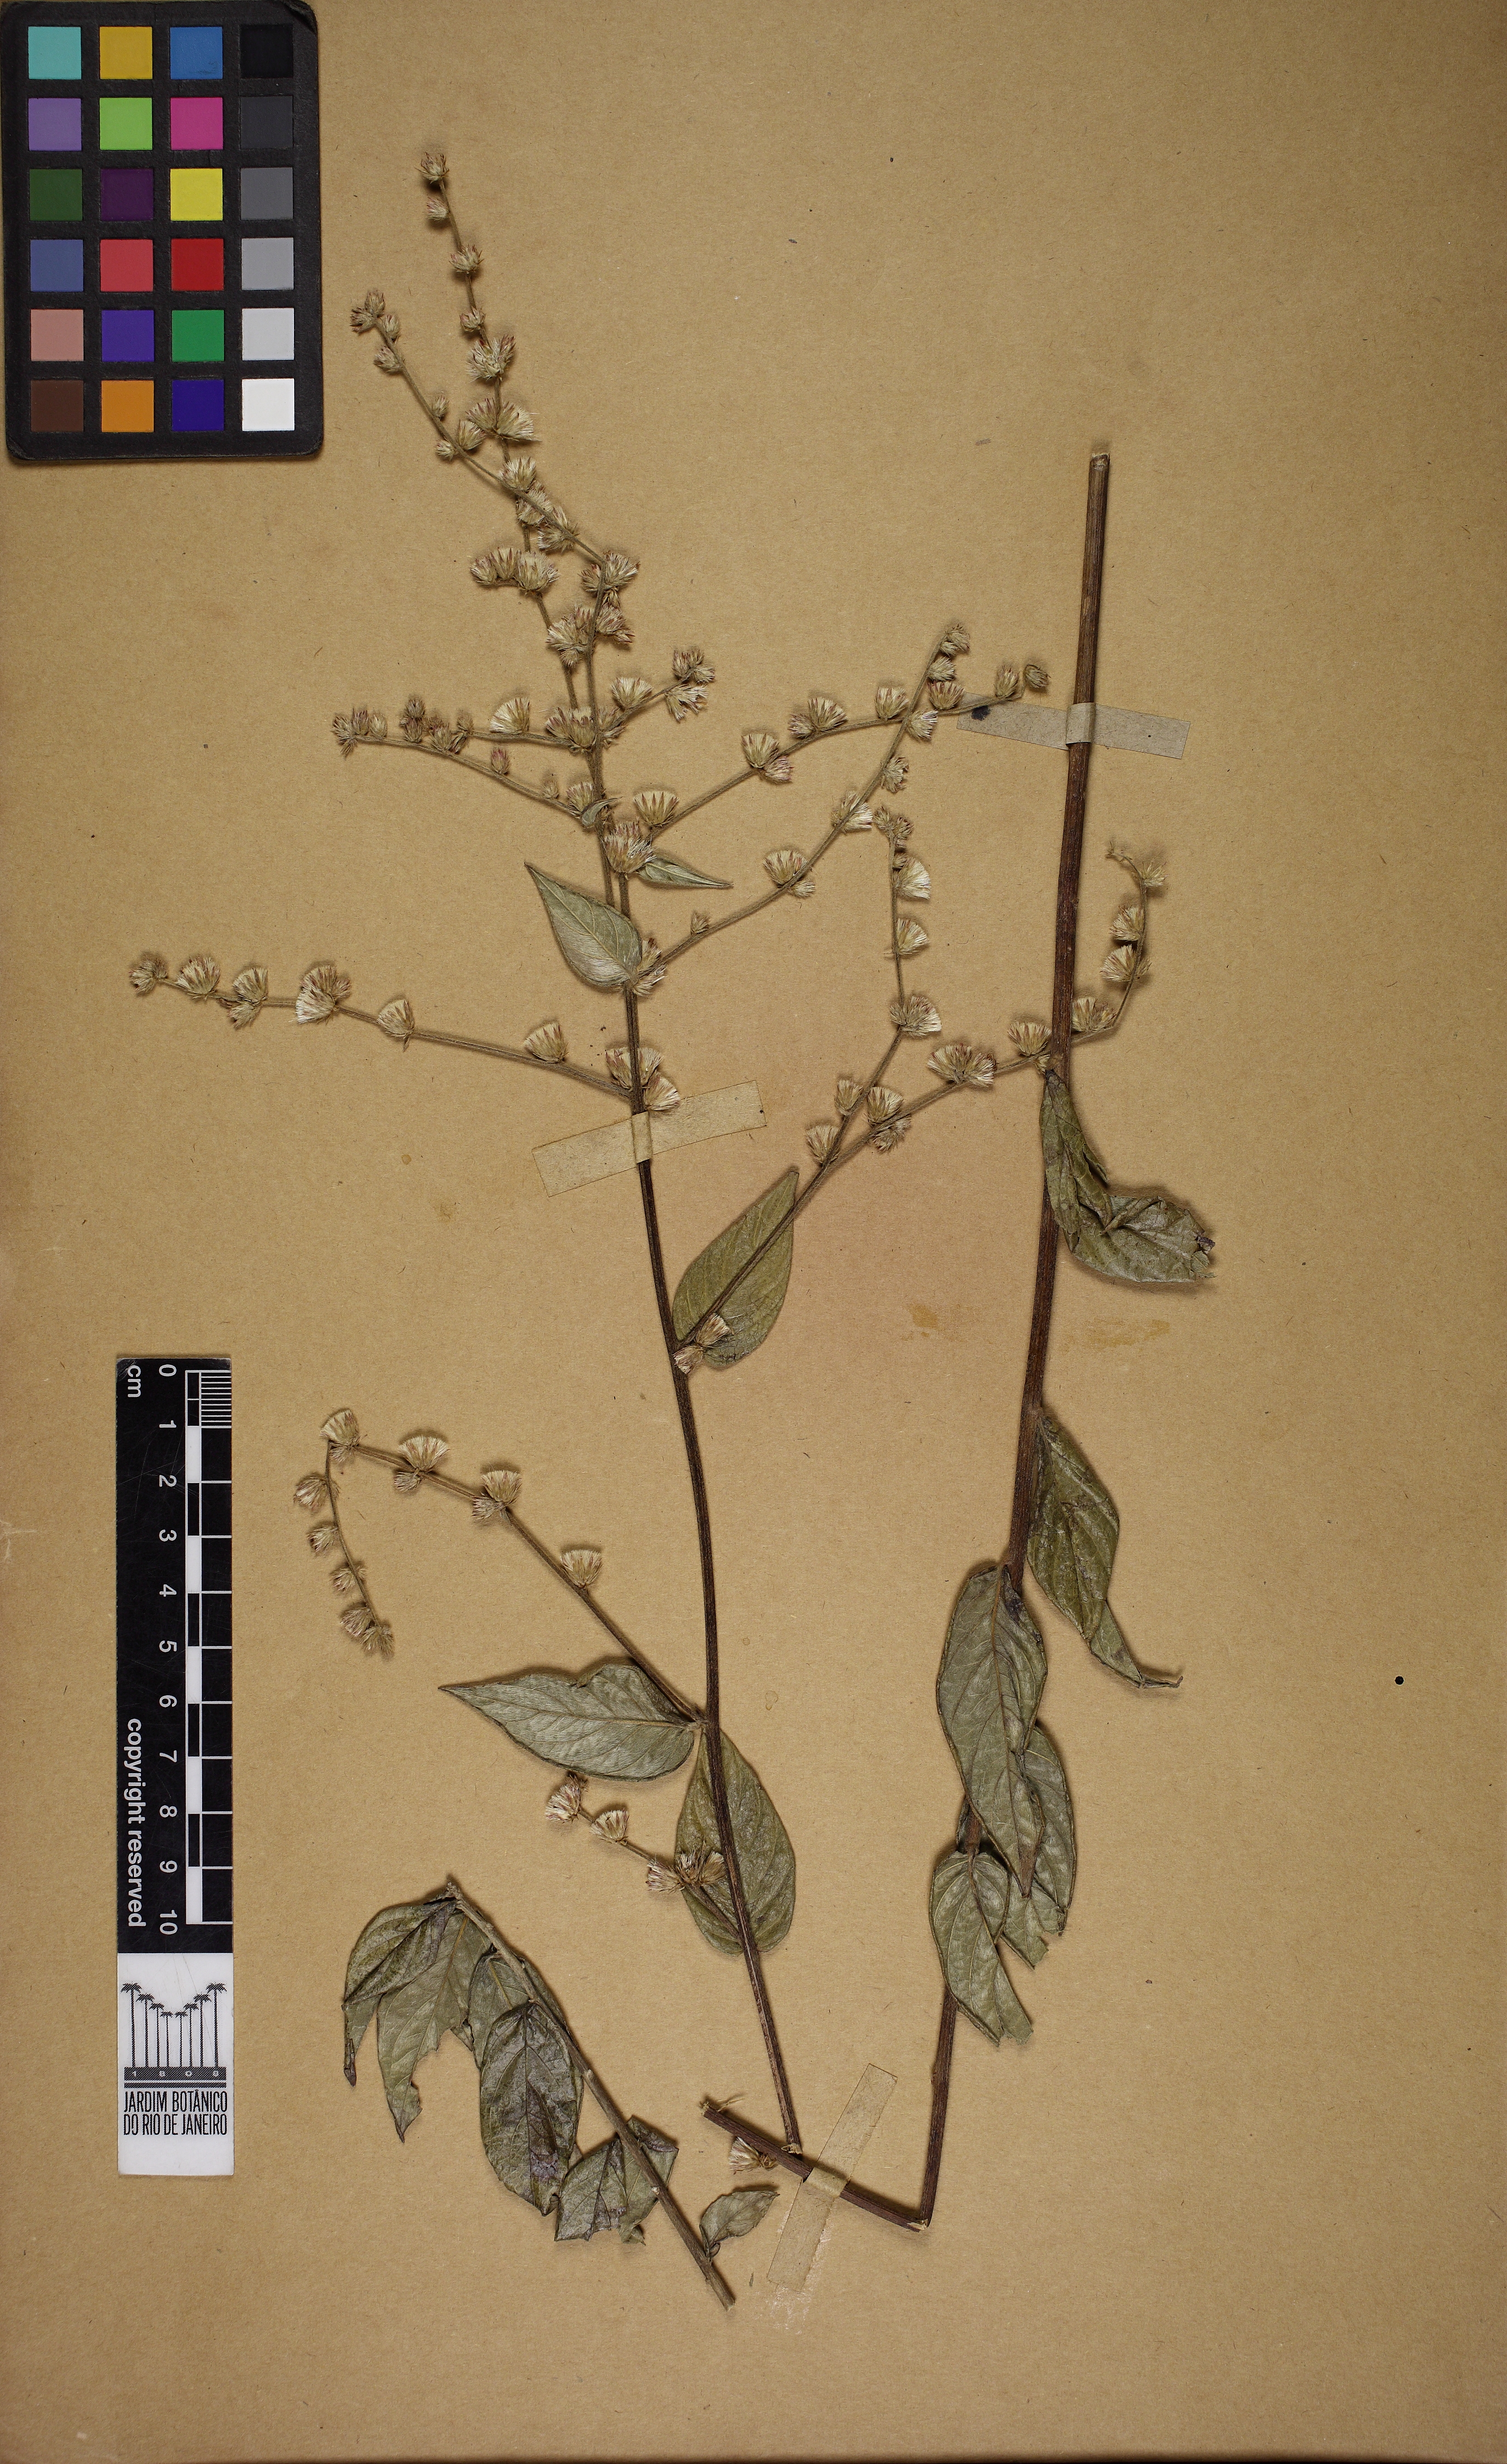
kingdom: Plantae
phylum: Tracheophyta
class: Magnoliopsida
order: Asterales
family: Asteraceae
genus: Lepidaploa
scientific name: Lepidaploa
